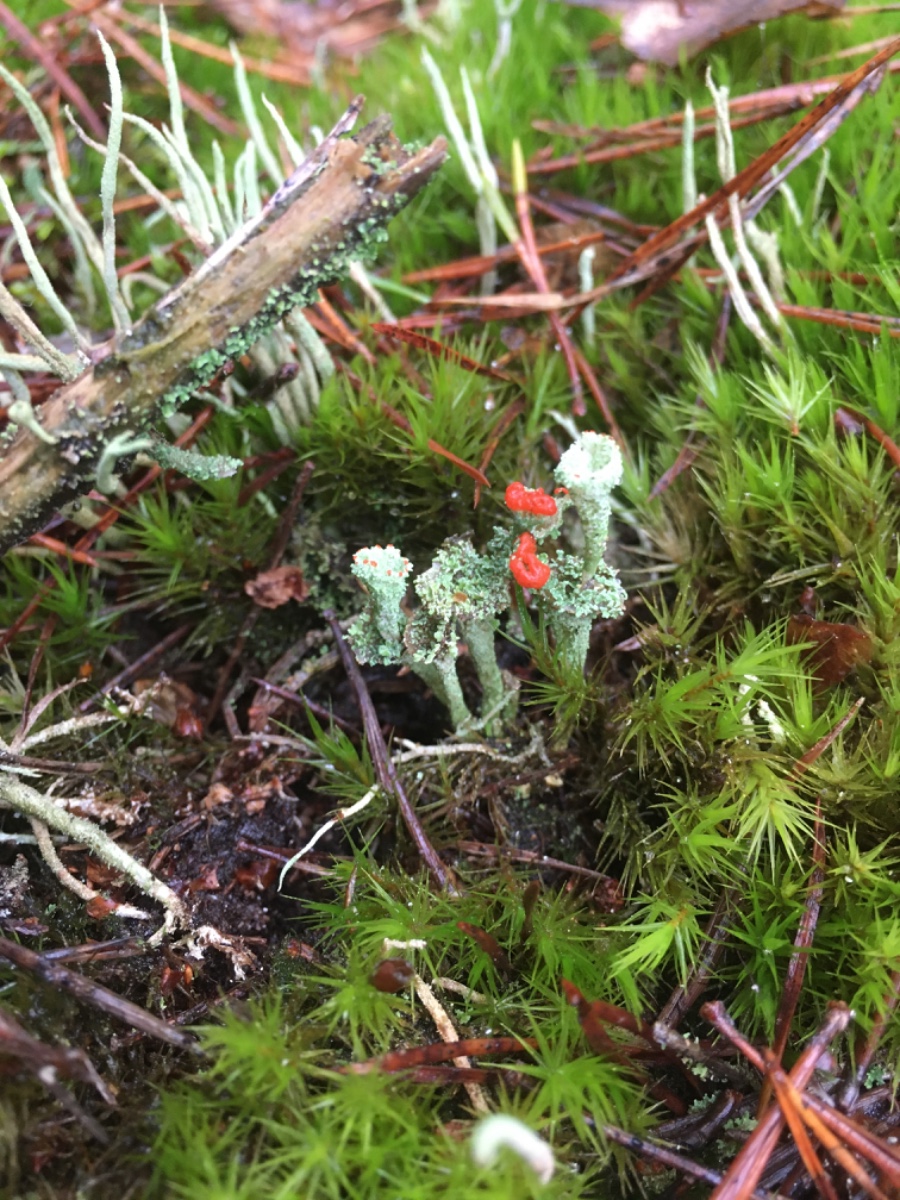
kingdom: Fungi
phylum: Ascomycota
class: Lecanoromycetes
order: Lecanorales
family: Cladoniaceae
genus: Cladonia
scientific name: Cladonia borealis
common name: nordlig bægerlav
